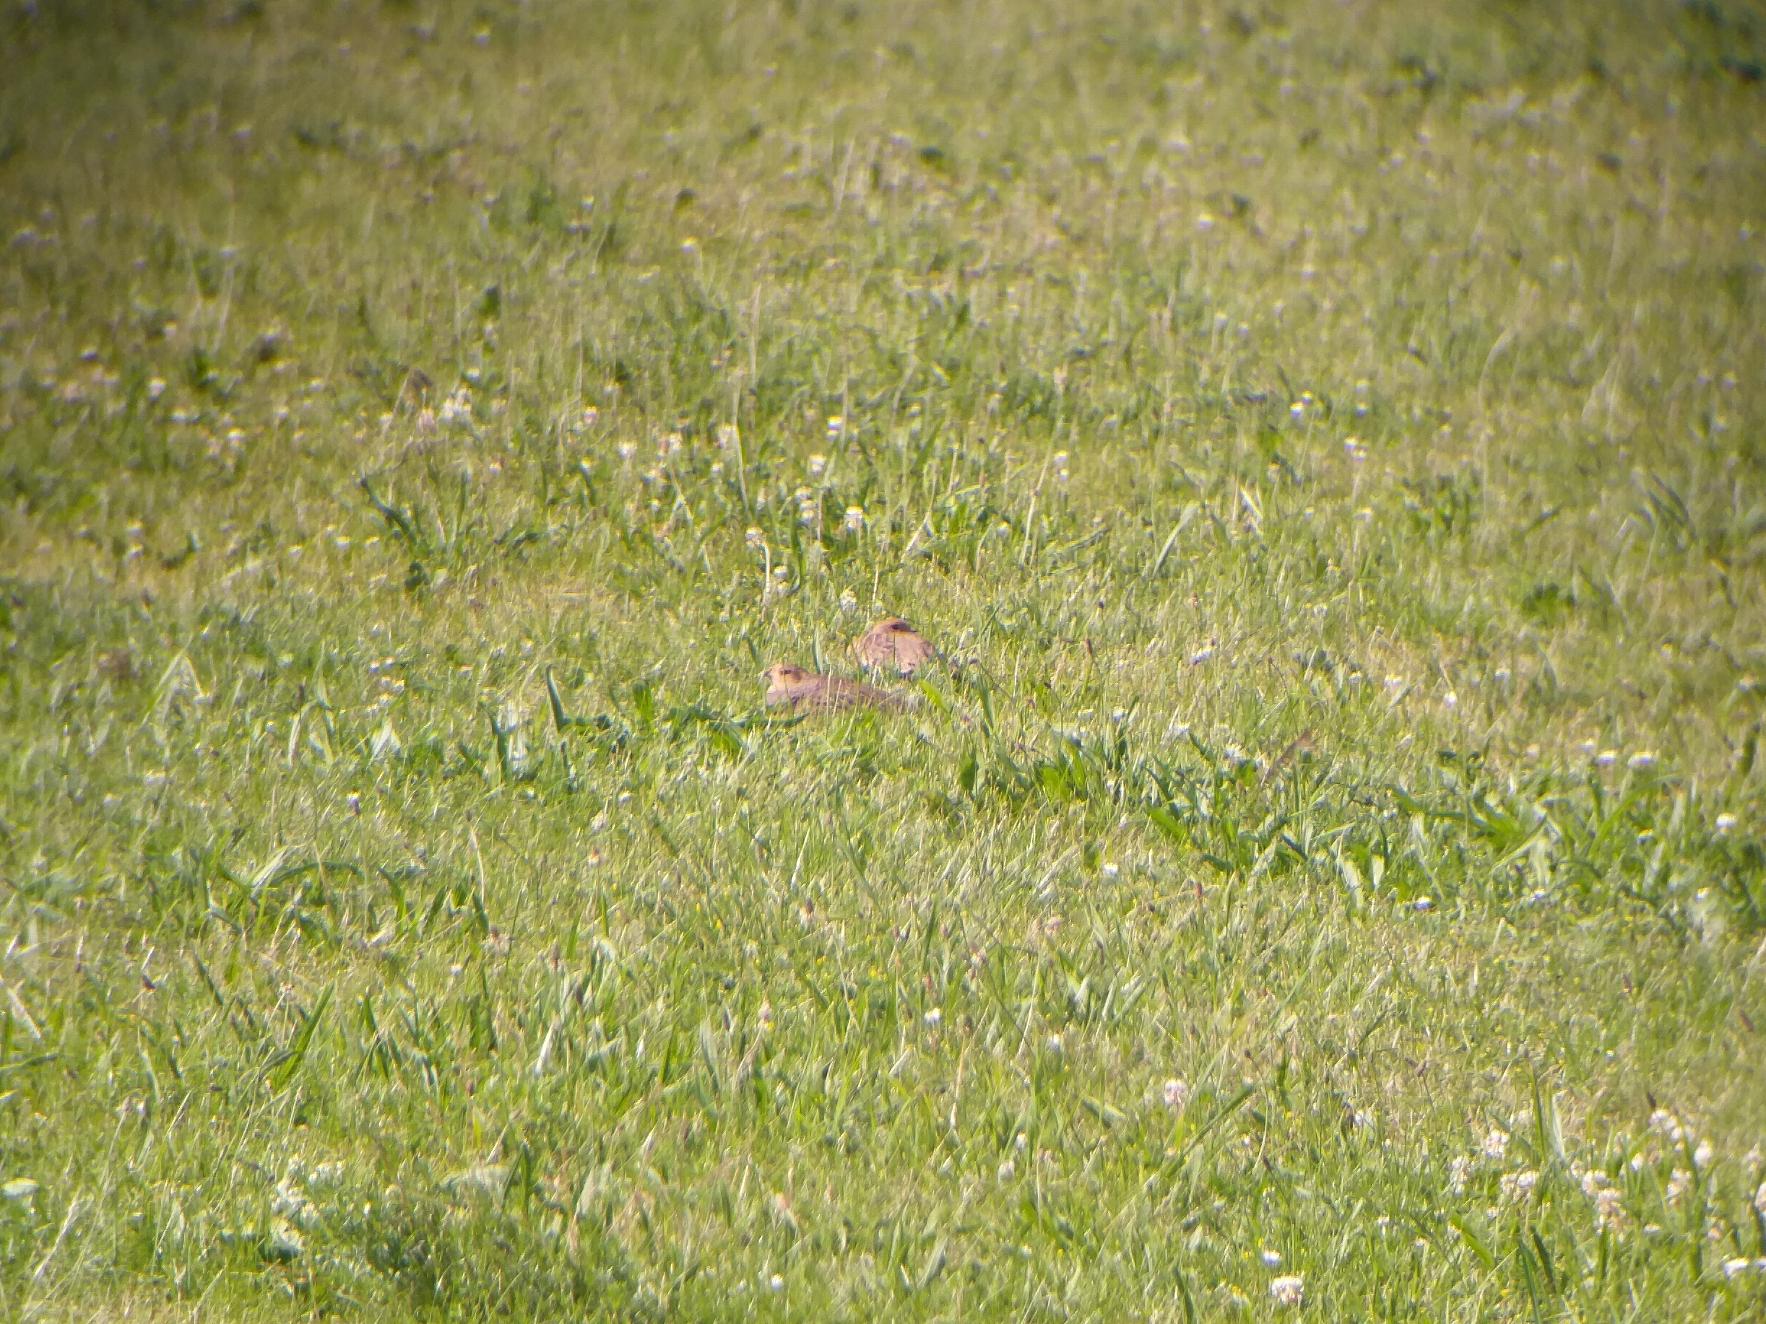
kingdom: Animalia
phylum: Chordata
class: Aves
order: Galliformes
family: Phasianidae
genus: Perdix
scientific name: Perdix perdix
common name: Agerhøne
